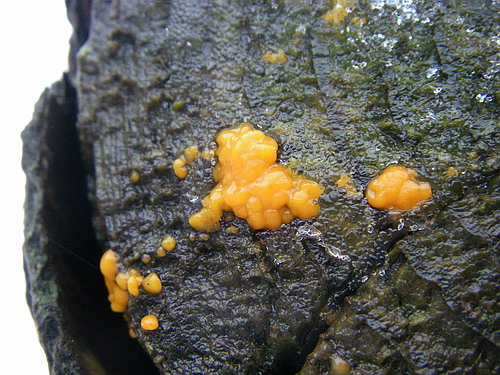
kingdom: Fungi
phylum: Basidiomycota
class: Dacrymycetes
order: Dacrymycetales
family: Dacrymycetaceae
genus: Dacrymyces
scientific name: Dacrymyces stillatus
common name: almindelig tåresvamp
